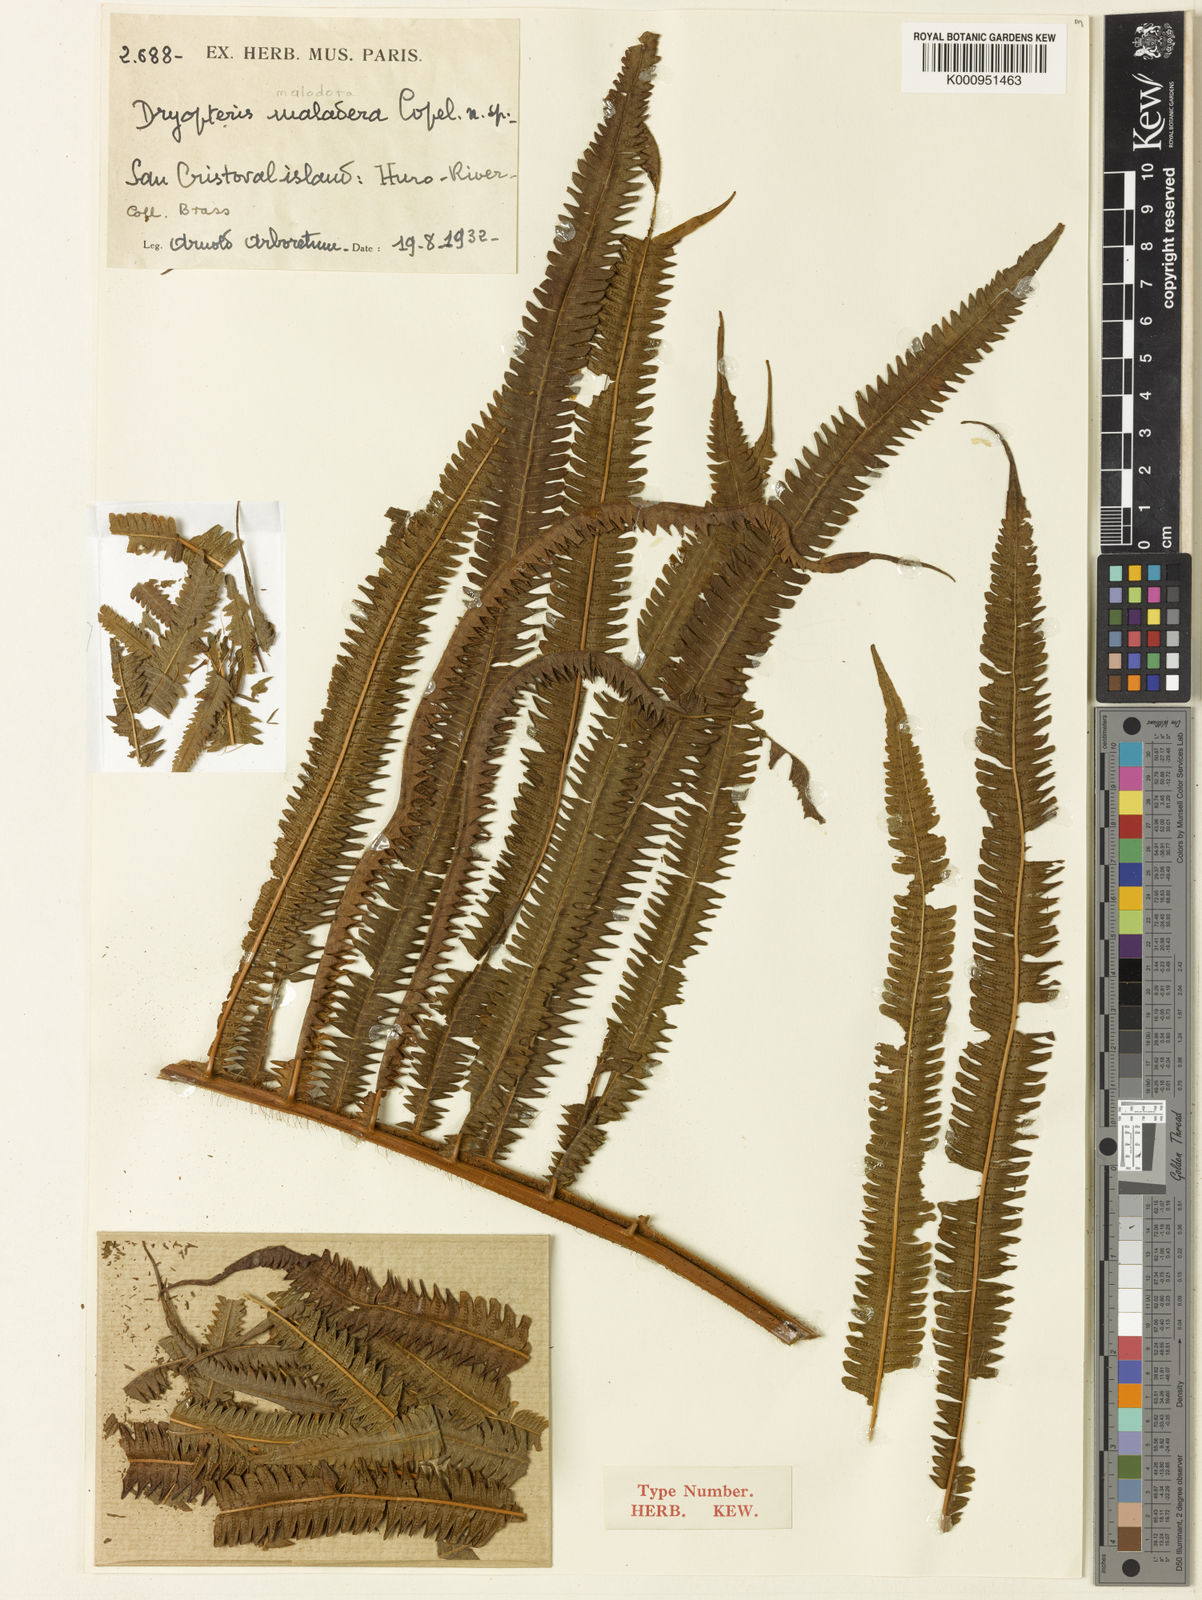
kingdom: Plantae
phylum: Tracheophyta
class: Polypodiopsida
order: Polypodiales
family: Thelypteridaceae
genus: Chingia
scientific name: Chingia malodora
